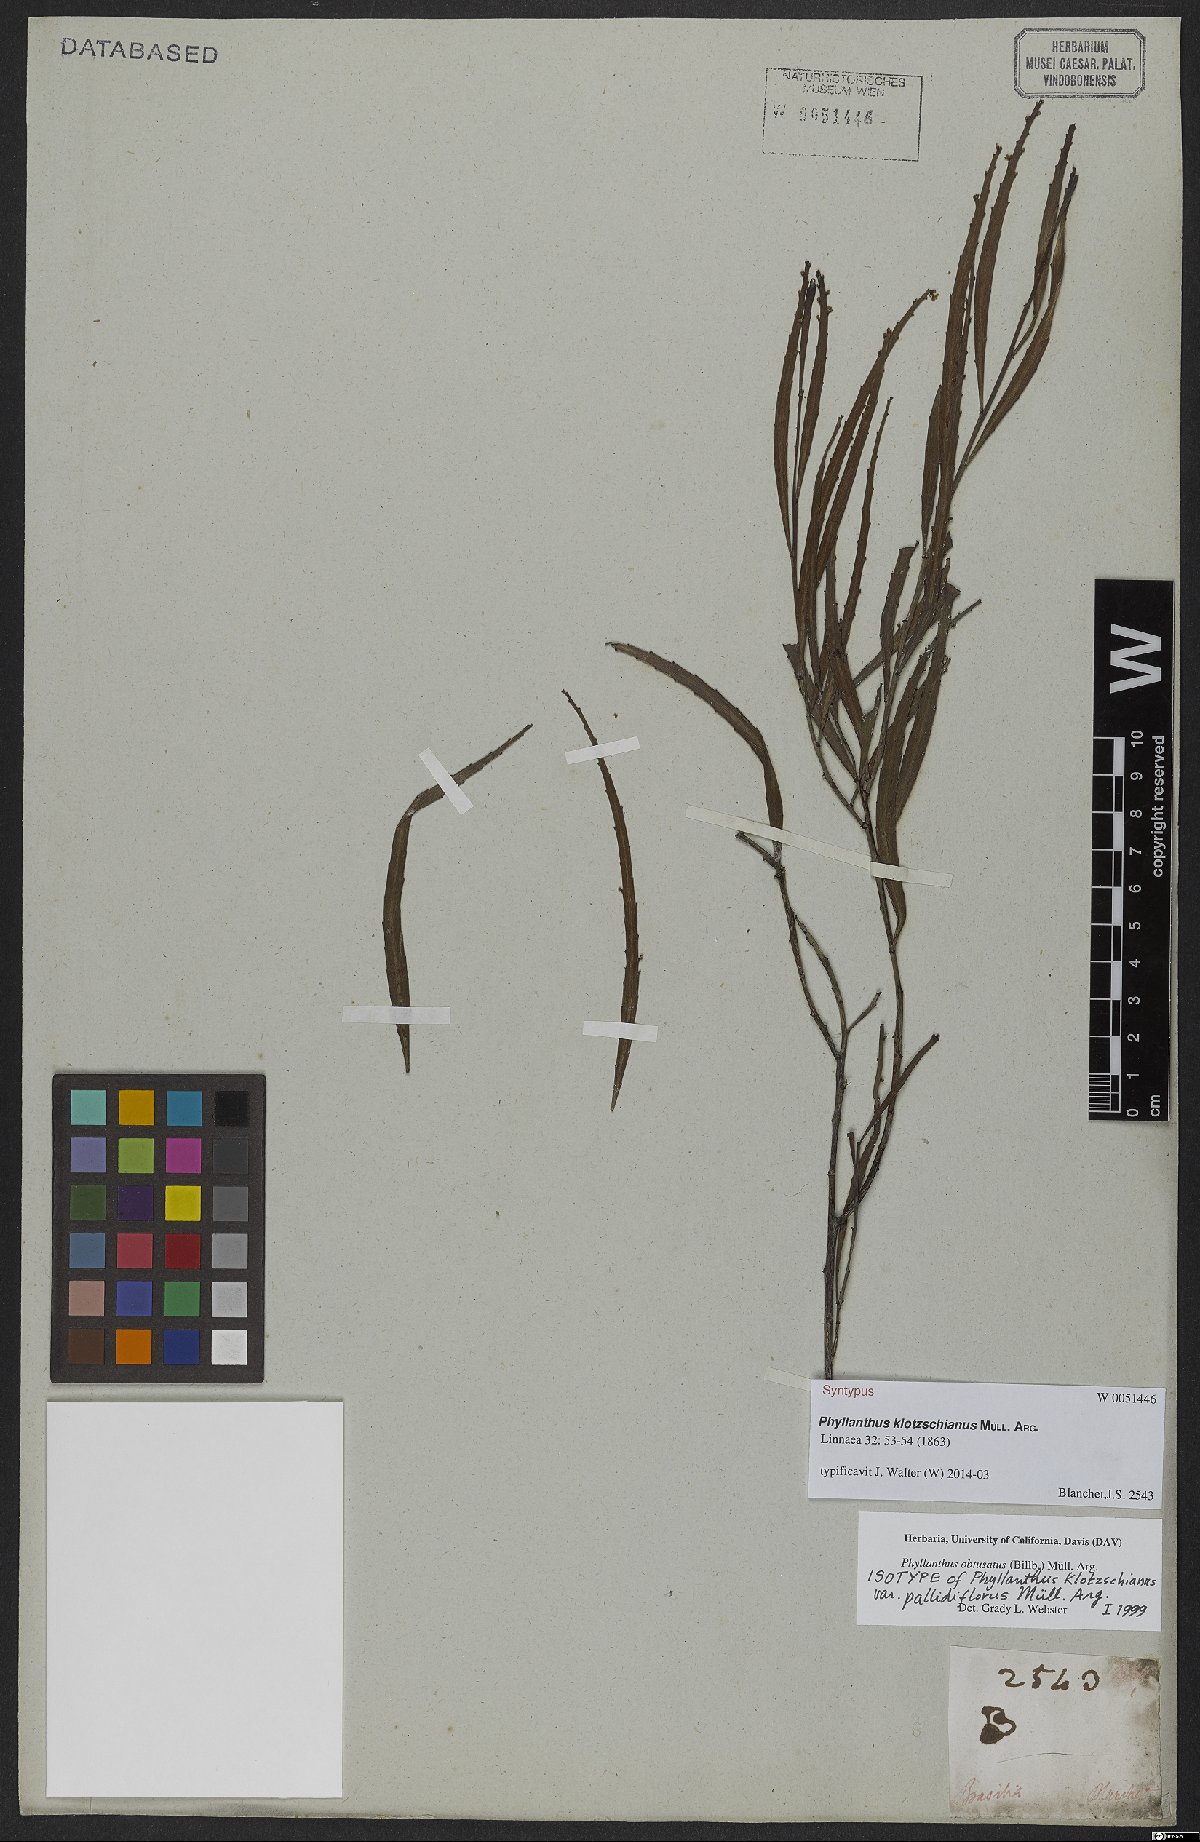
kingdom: Plantae
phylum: Tracheophyta
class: Magnoliopsida
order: Malpighiales
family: Phyllanthaceae
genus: Phyllanthus
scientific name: Phyllanthus robustus
